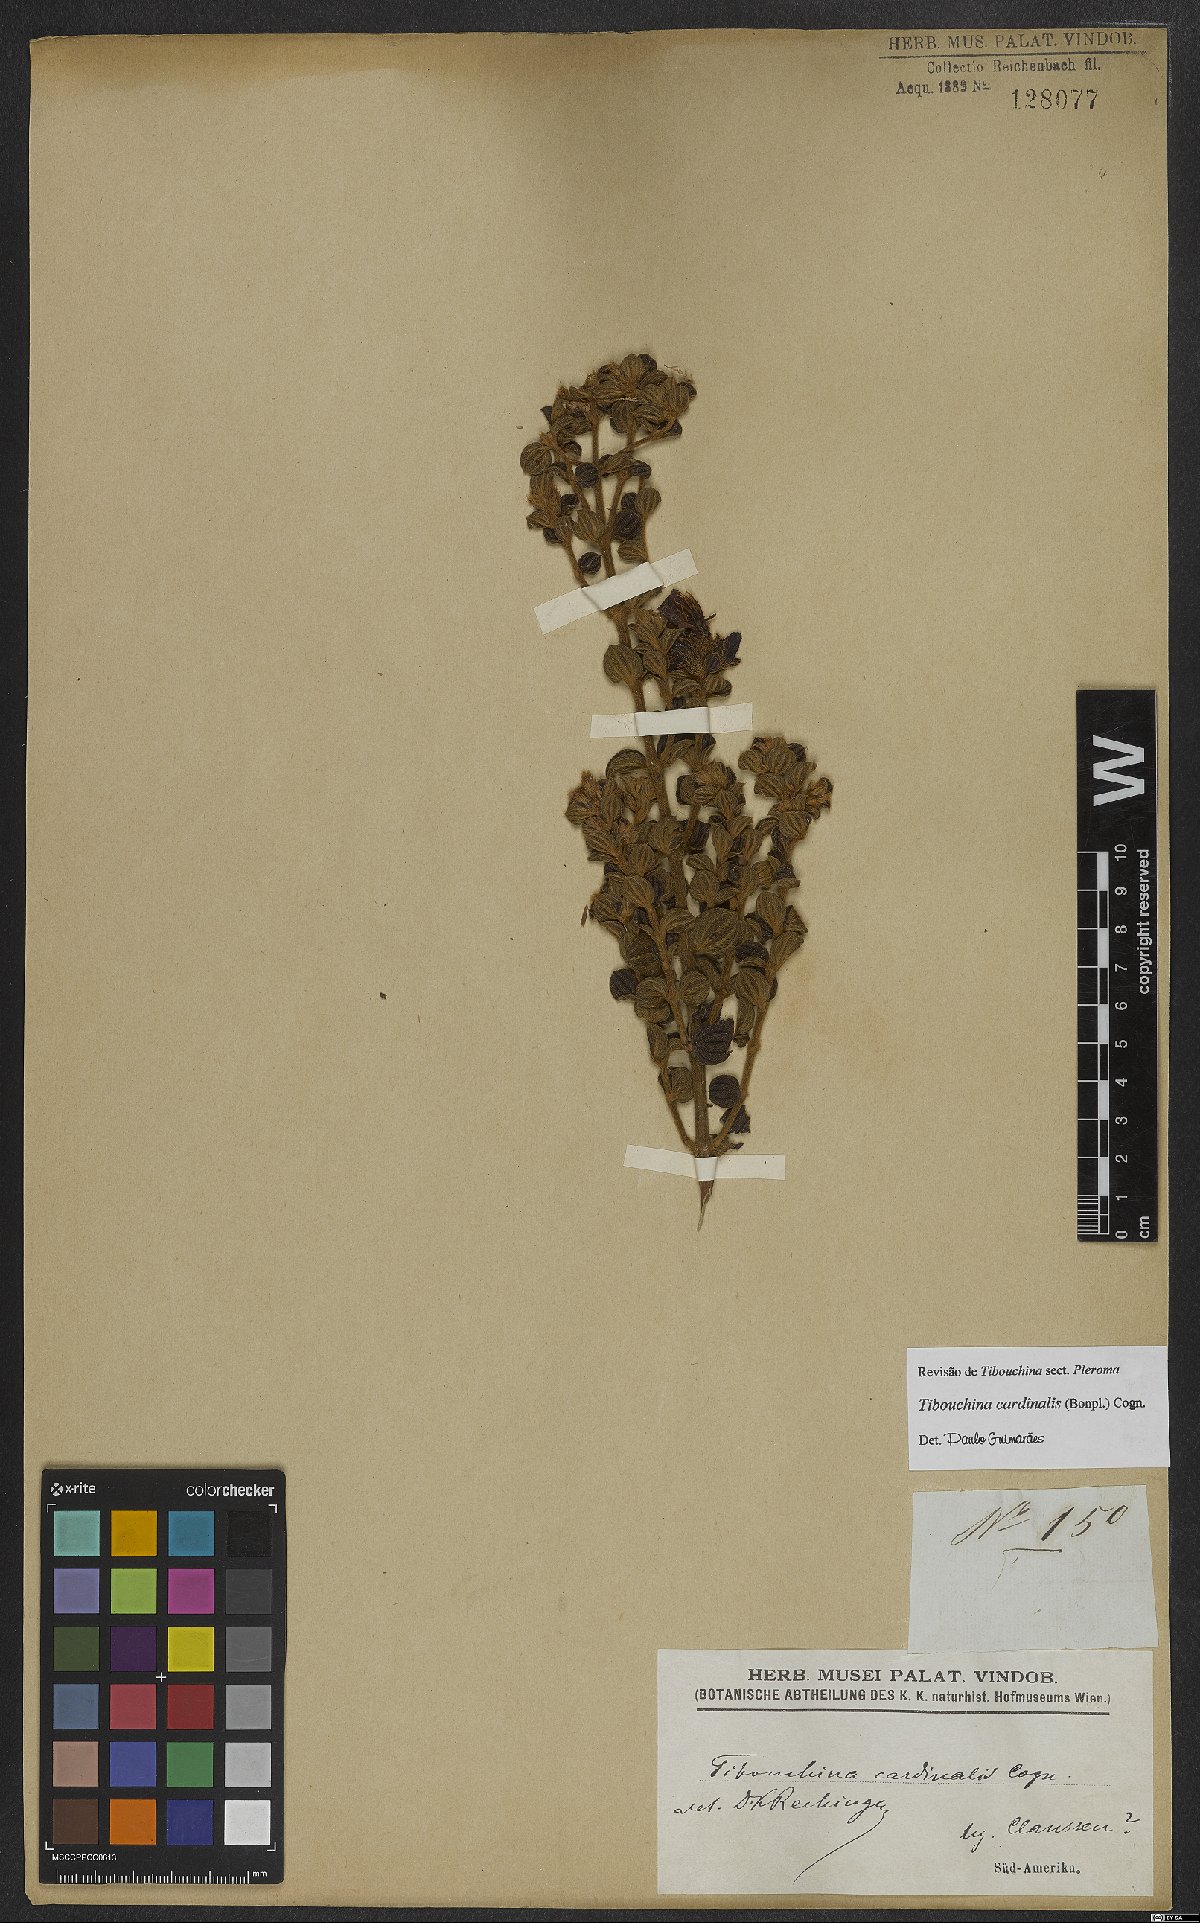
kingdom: Plantae
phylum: Tracheophyta
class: Magnoliopsida
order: Myrtales
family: Melastomataceae
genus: Chaetogastra
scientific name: Chaetogastra cardinalis
